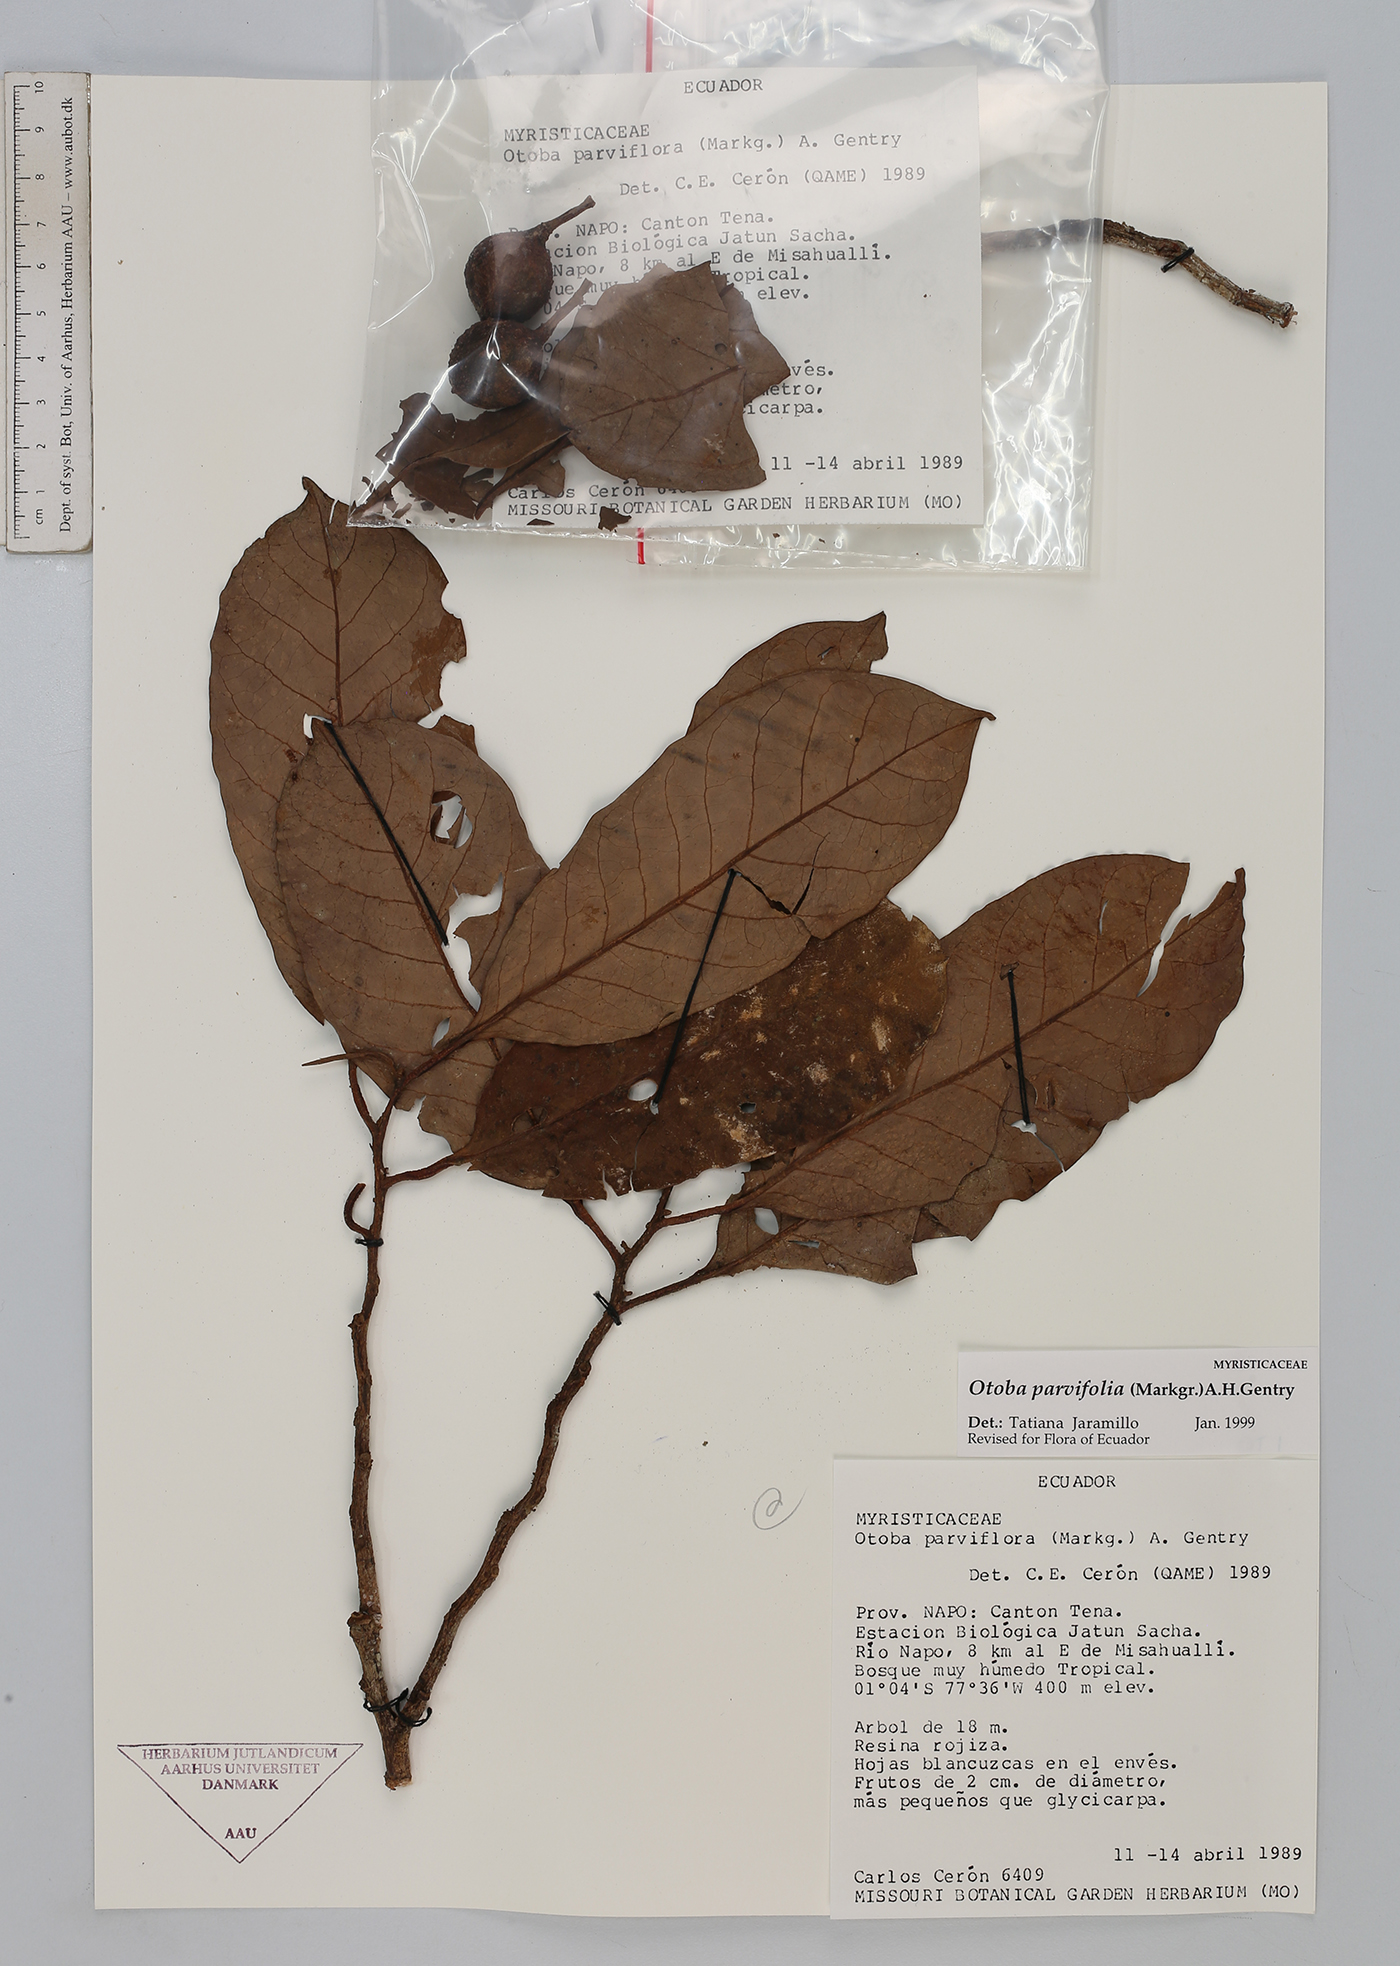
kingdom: Plantae
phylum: Tracheophyta
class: Magnoliopsida
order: Magnoliales
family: Myristicaceae
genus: Otoba
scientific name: Otoba parvifolia
